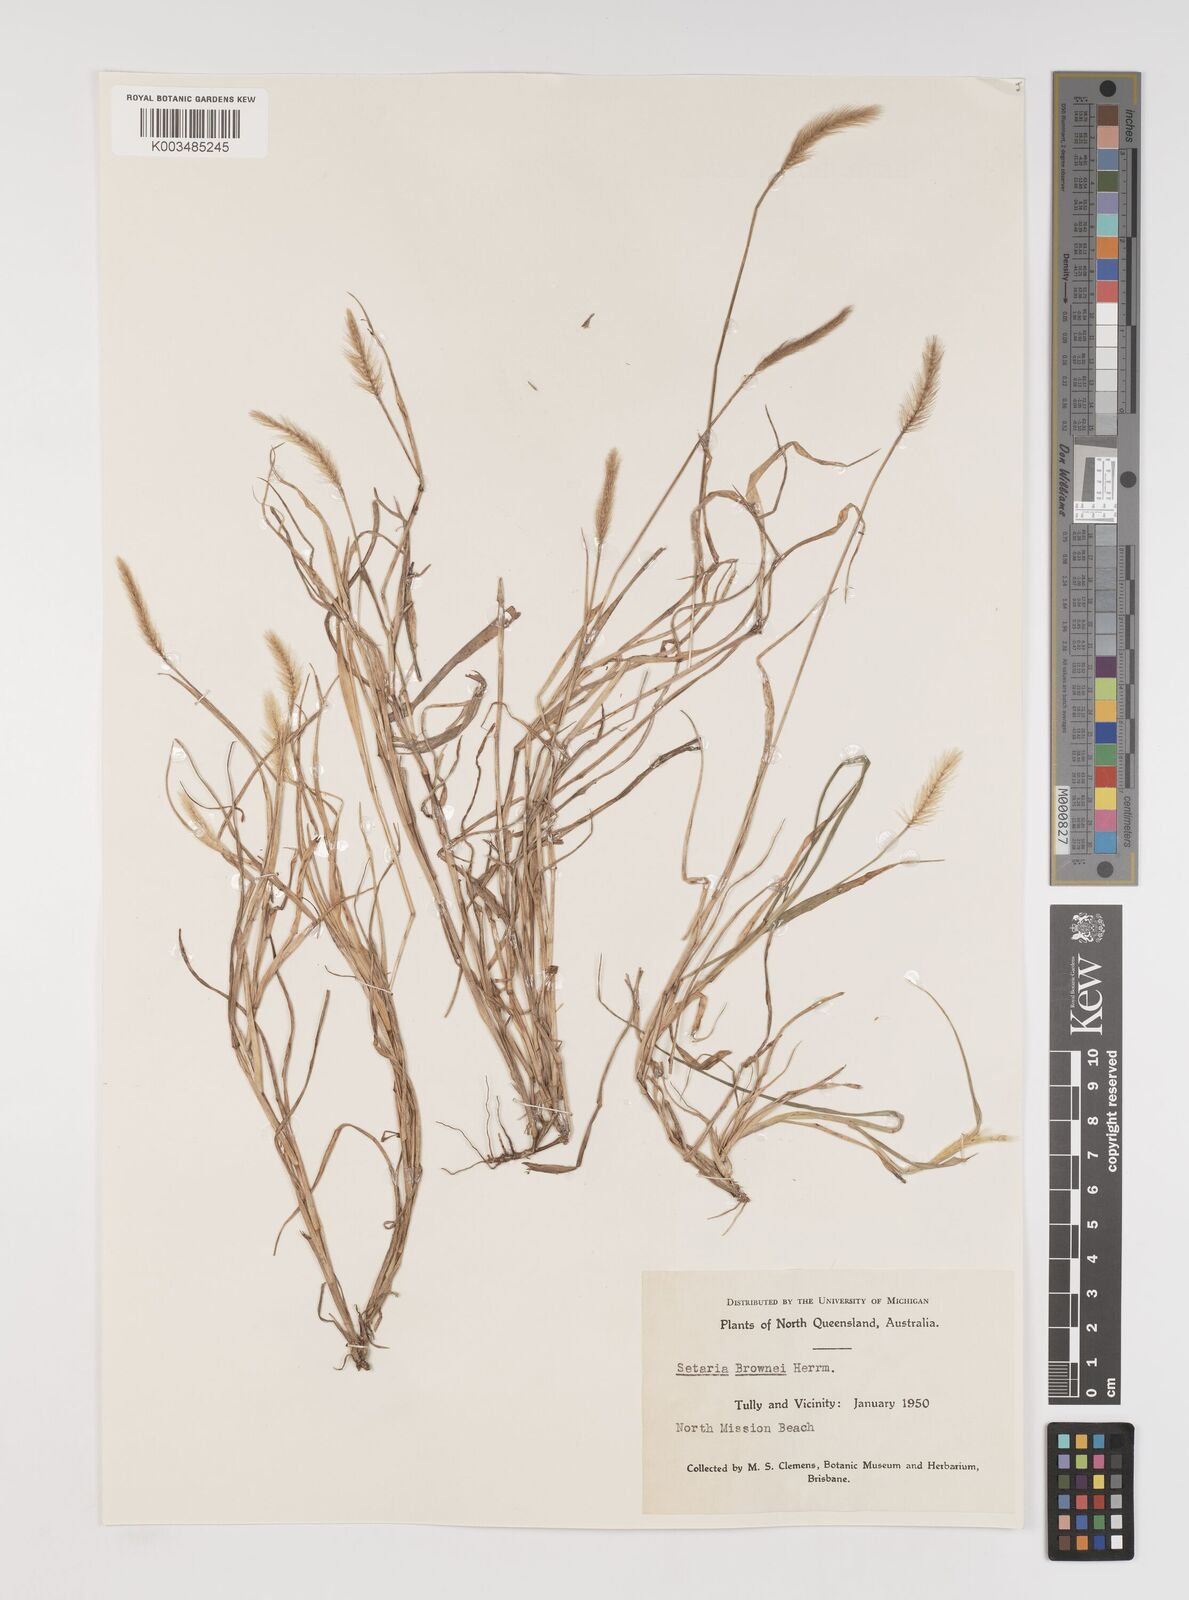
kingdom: Plantae
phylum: Tracheophyta
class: Liliopsida
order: Poales
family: Poaceae
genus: Setaria
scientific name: Setaria surgens
